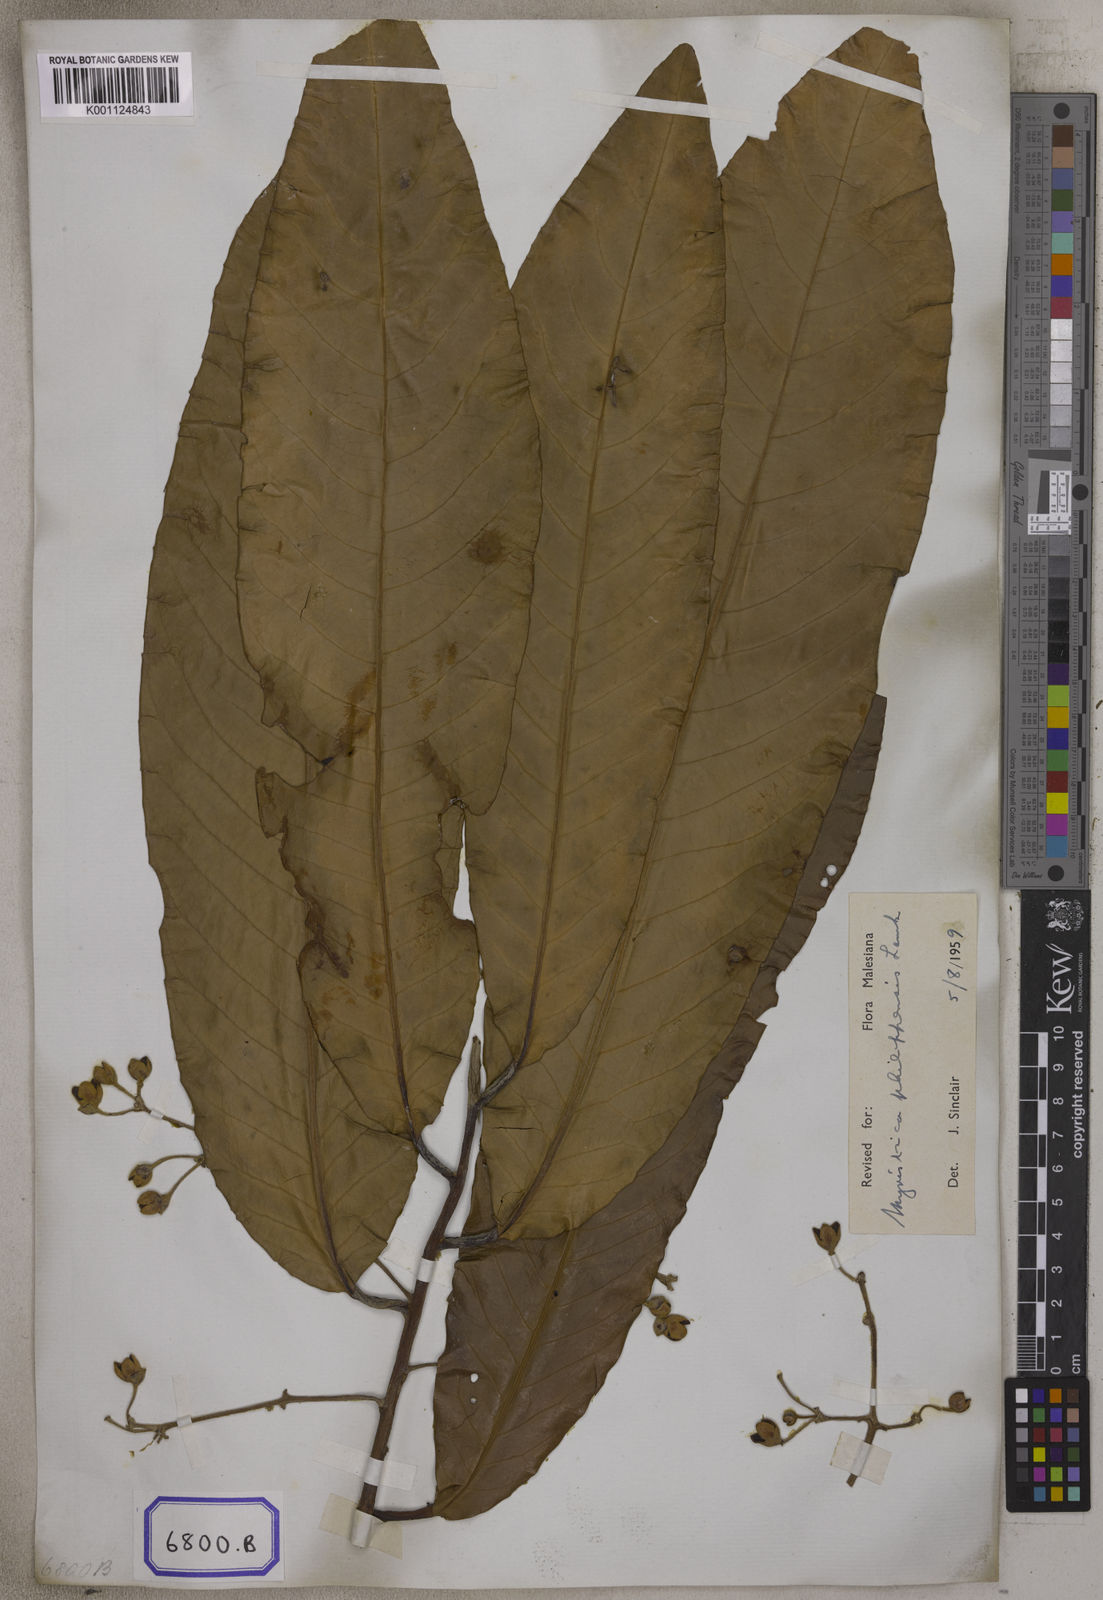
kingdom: Plantae
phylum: Tracheophyta
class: Magnoliopsida
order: Magnoliales
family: Myristicaceae
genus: Horsfieldia
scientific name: Horsfieldia sylvestris
